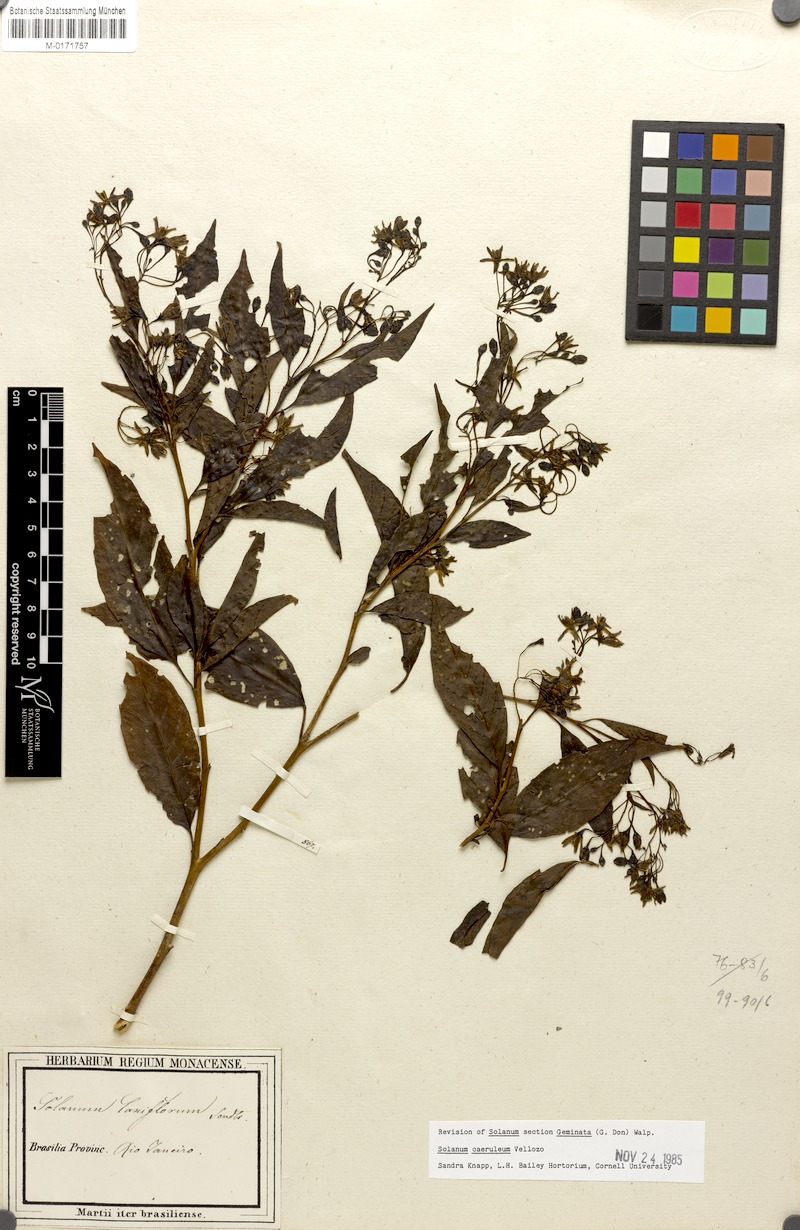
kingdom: Plantae
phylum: Tracheophyta
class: Magnoliopsida
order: Solanales
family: Solanaceae
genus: Solanum
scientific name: Solanum campaniforme
